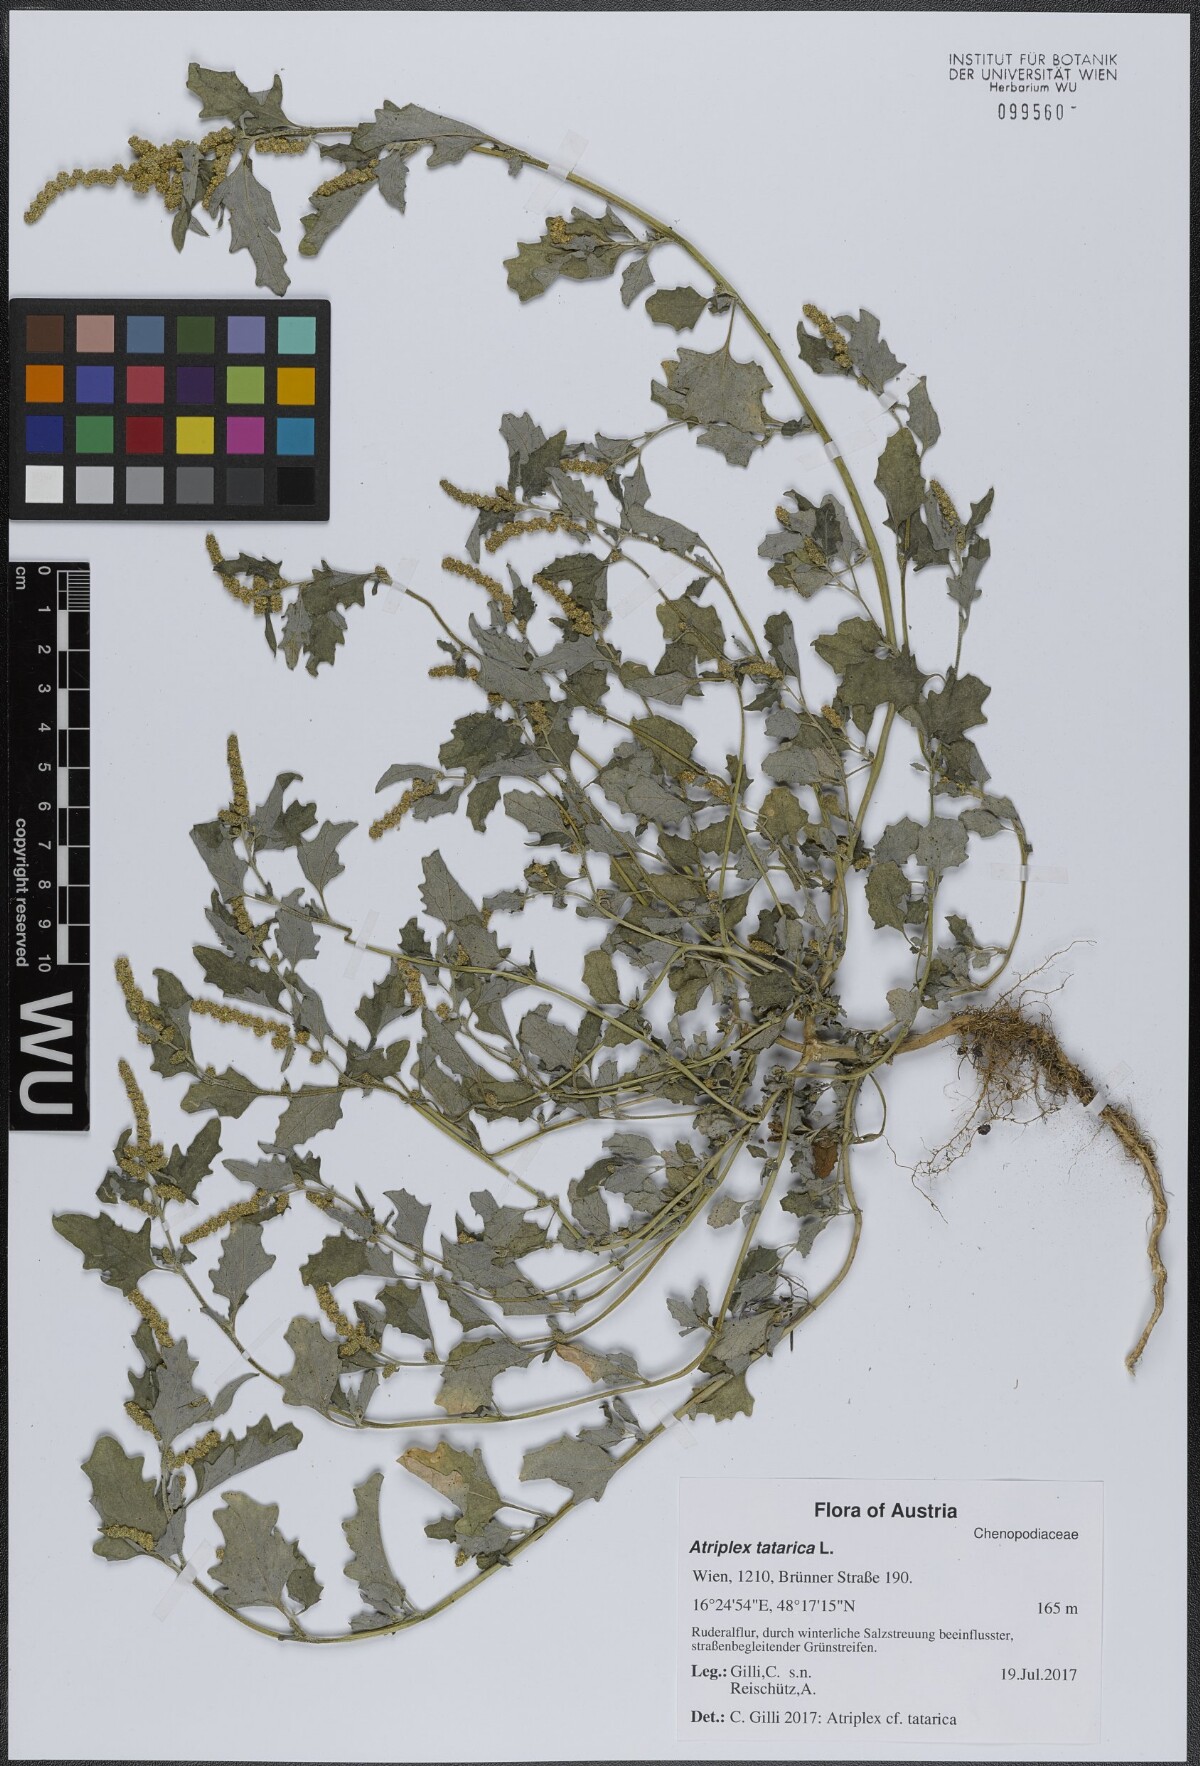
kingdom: Plantae
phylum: Tracheophyta
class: Magnoliopsida
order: Caryophyllales
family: Amaranthaceae
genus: Atriplex
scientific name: Atriplex tatarica
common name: Tatarian orache
